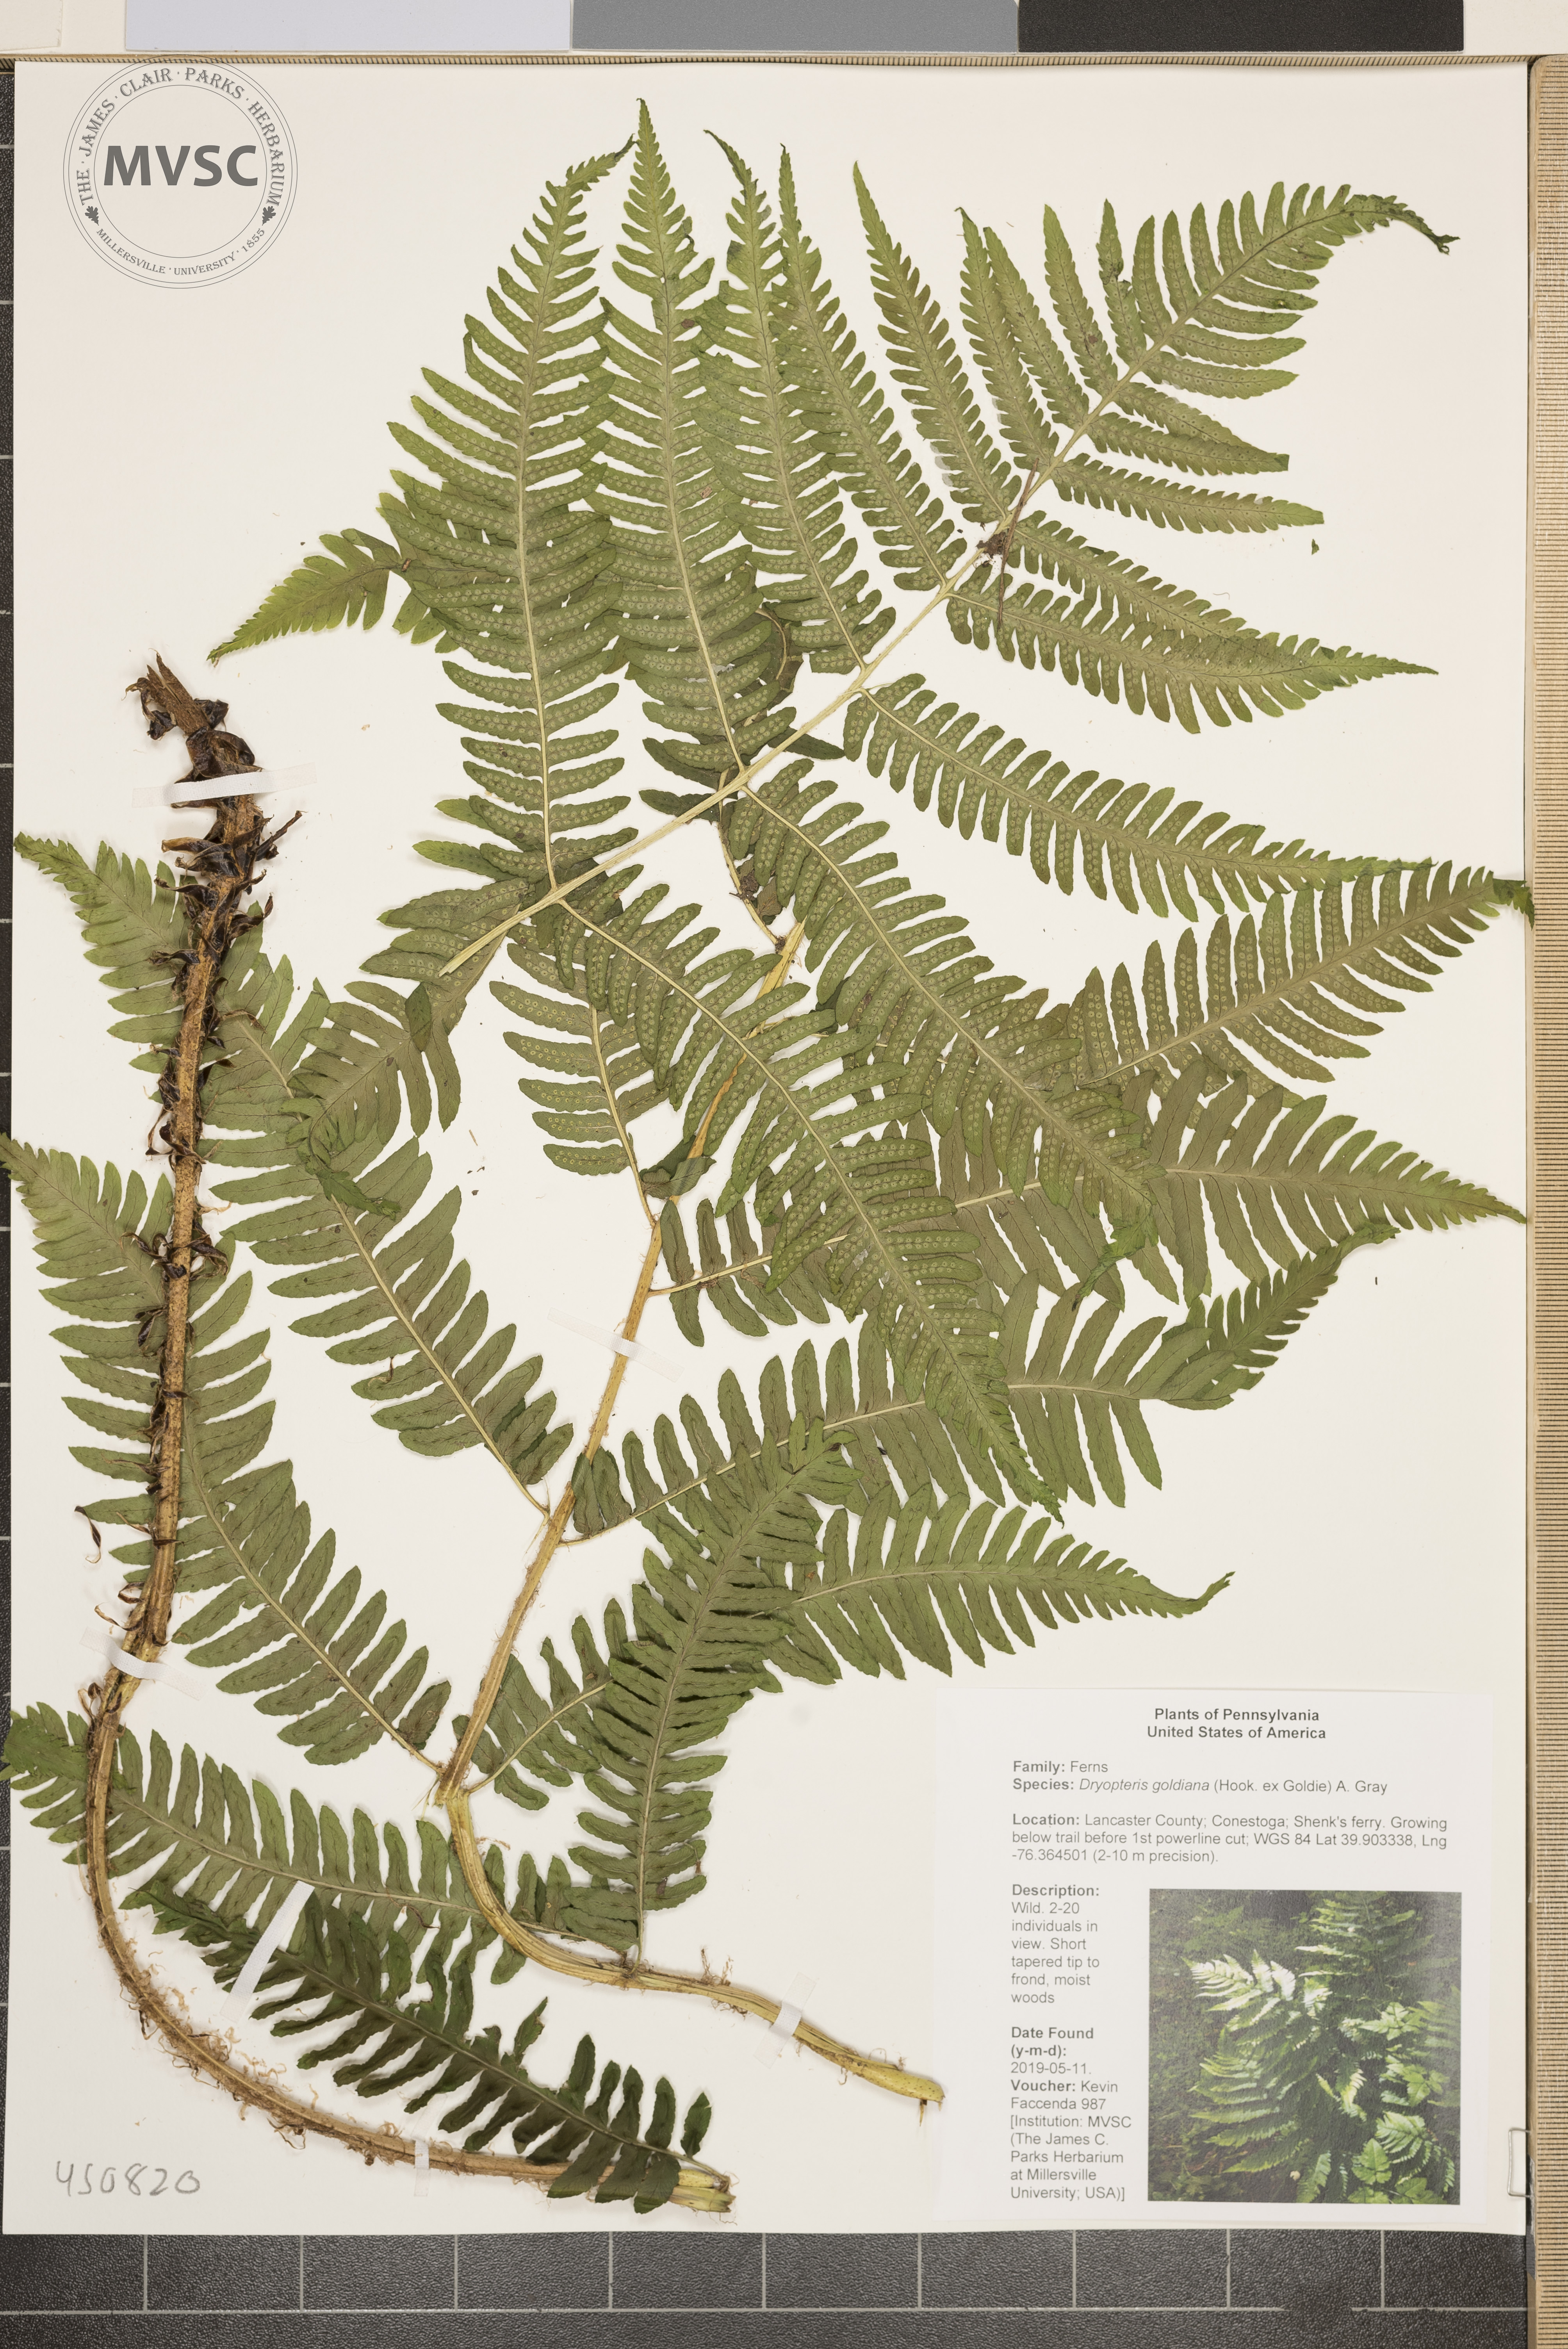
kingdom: Plantae
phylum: Tracheophyta
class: Polypodiopsida
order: Polypodiales
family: Dryopteridaceae
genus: Dryopteris
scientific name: Dryopteris goeldiana
